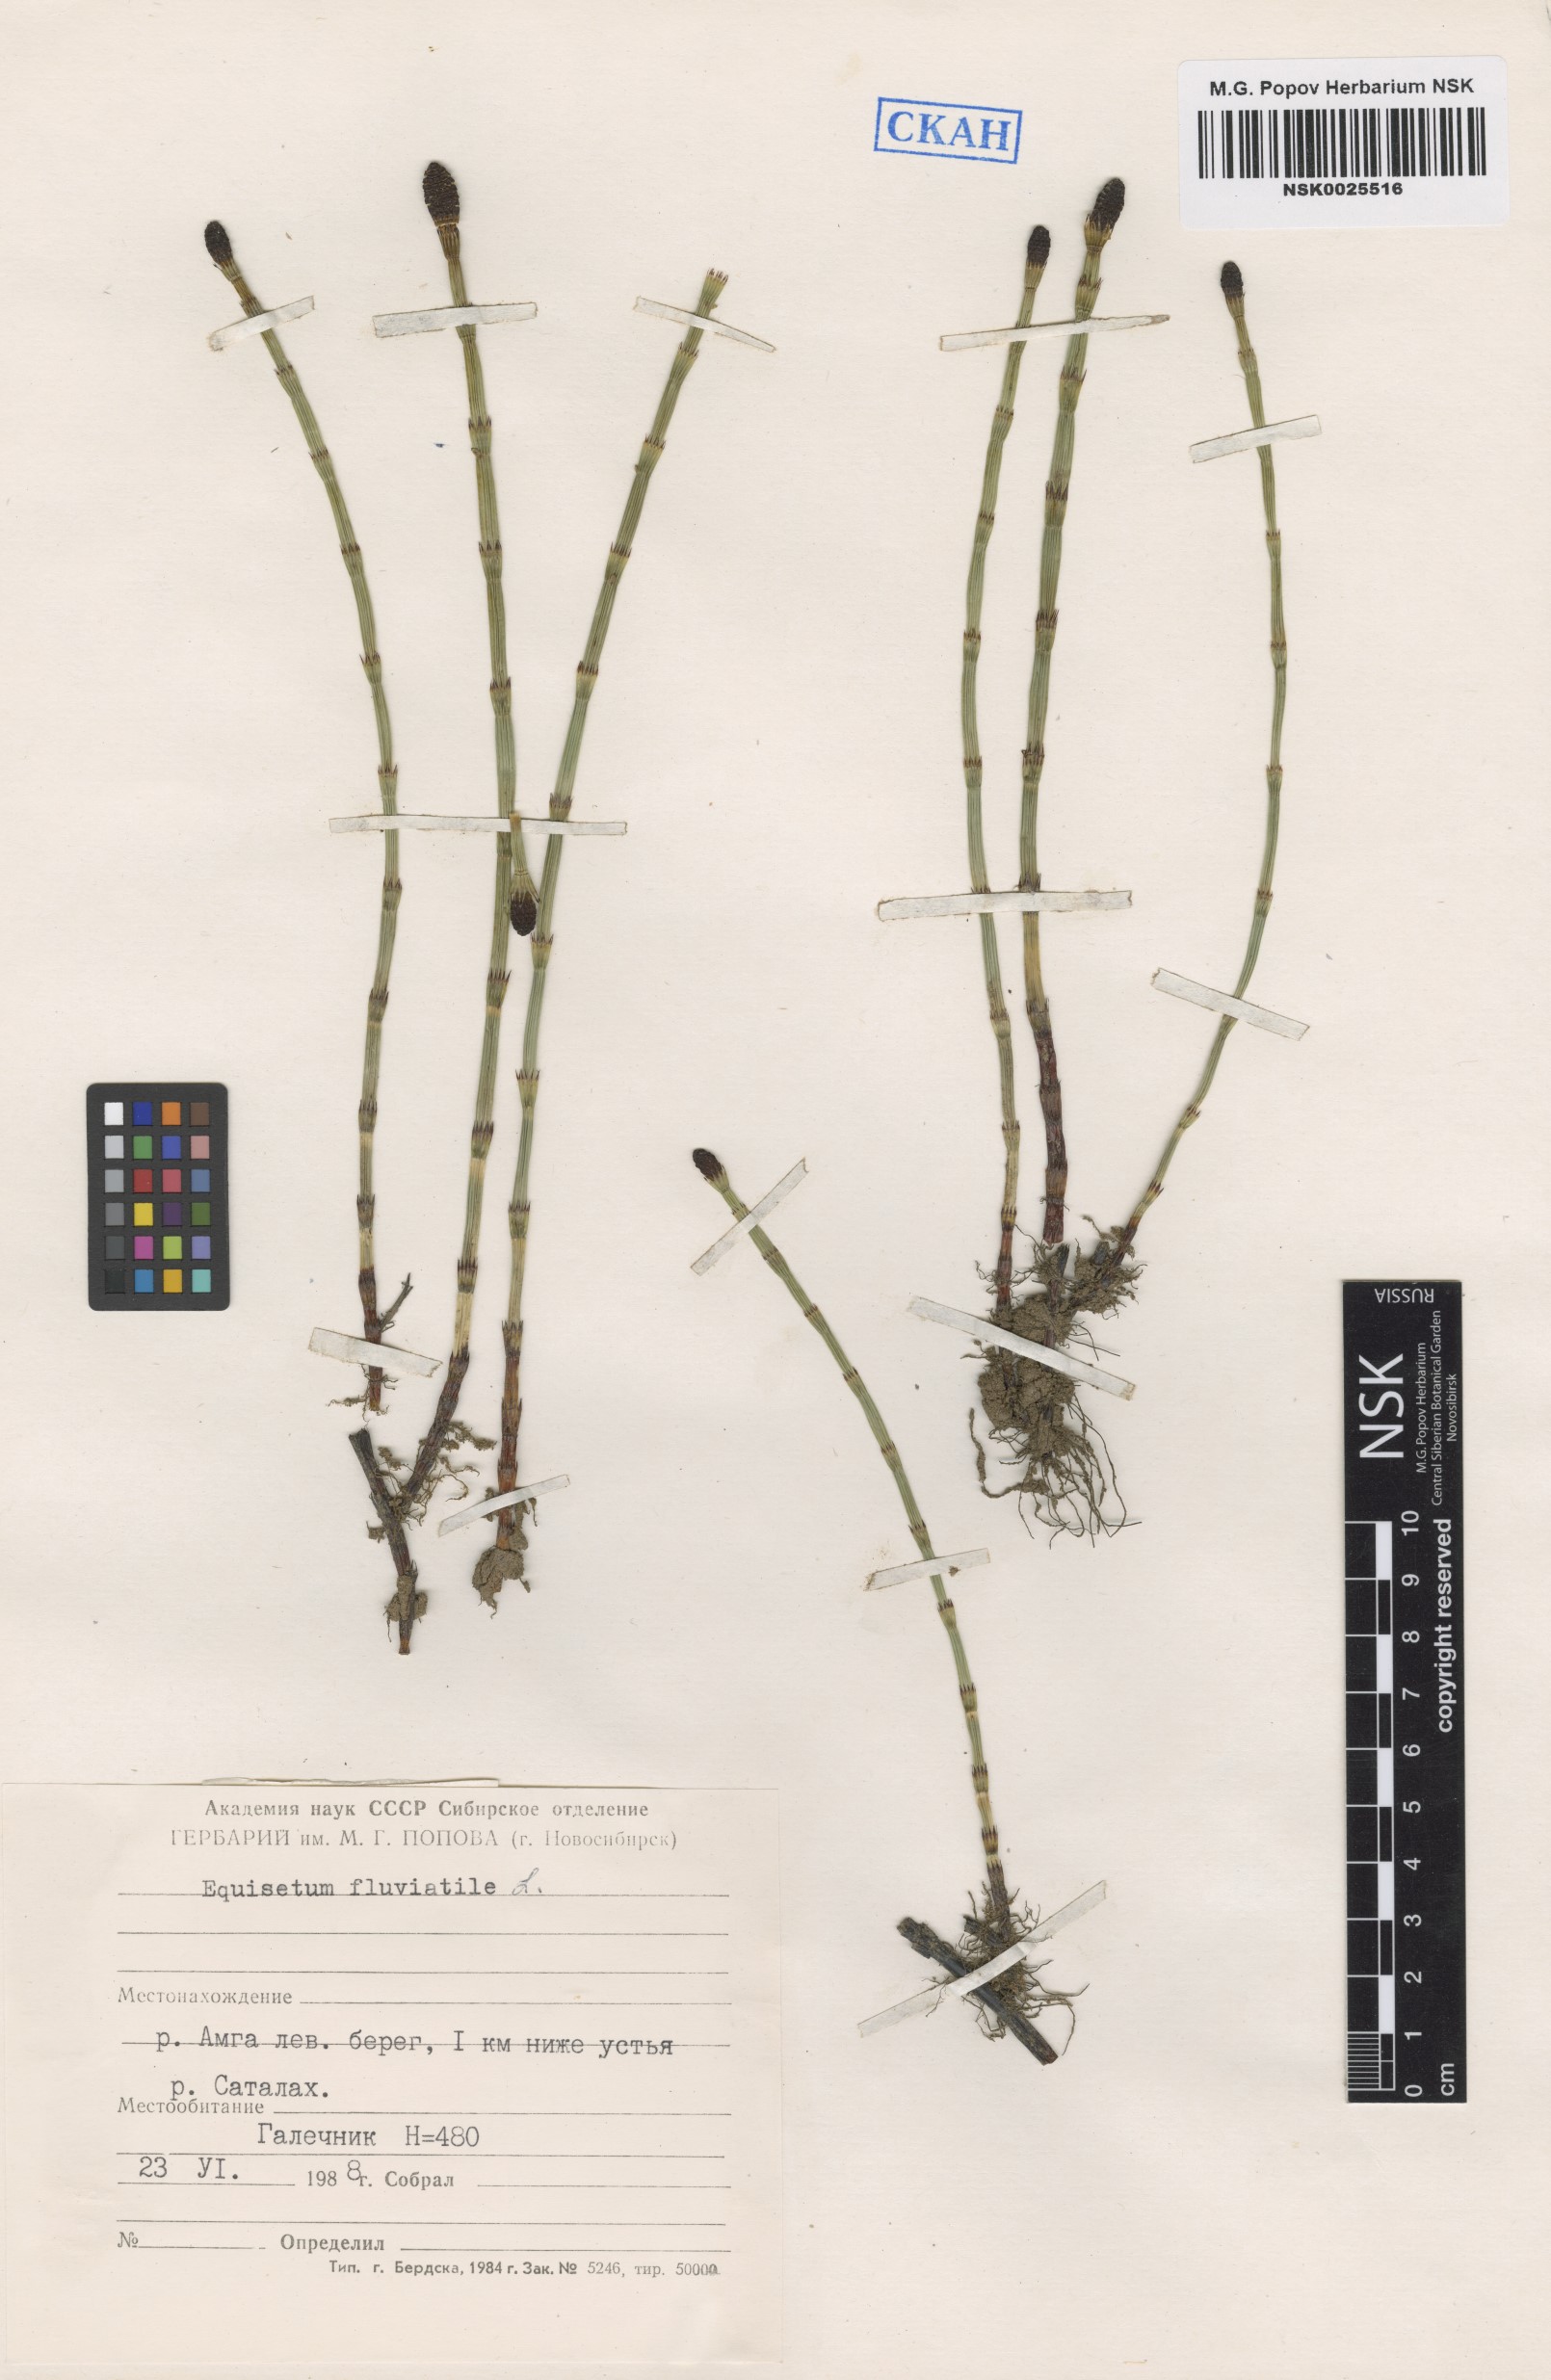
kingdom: Plantae
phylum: Tracheophyta
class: Polypodiopsida
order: Equisetales
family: Equisetaceae
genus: Equisetum
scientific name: Equisetum fluviatile
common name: Water horsetail
